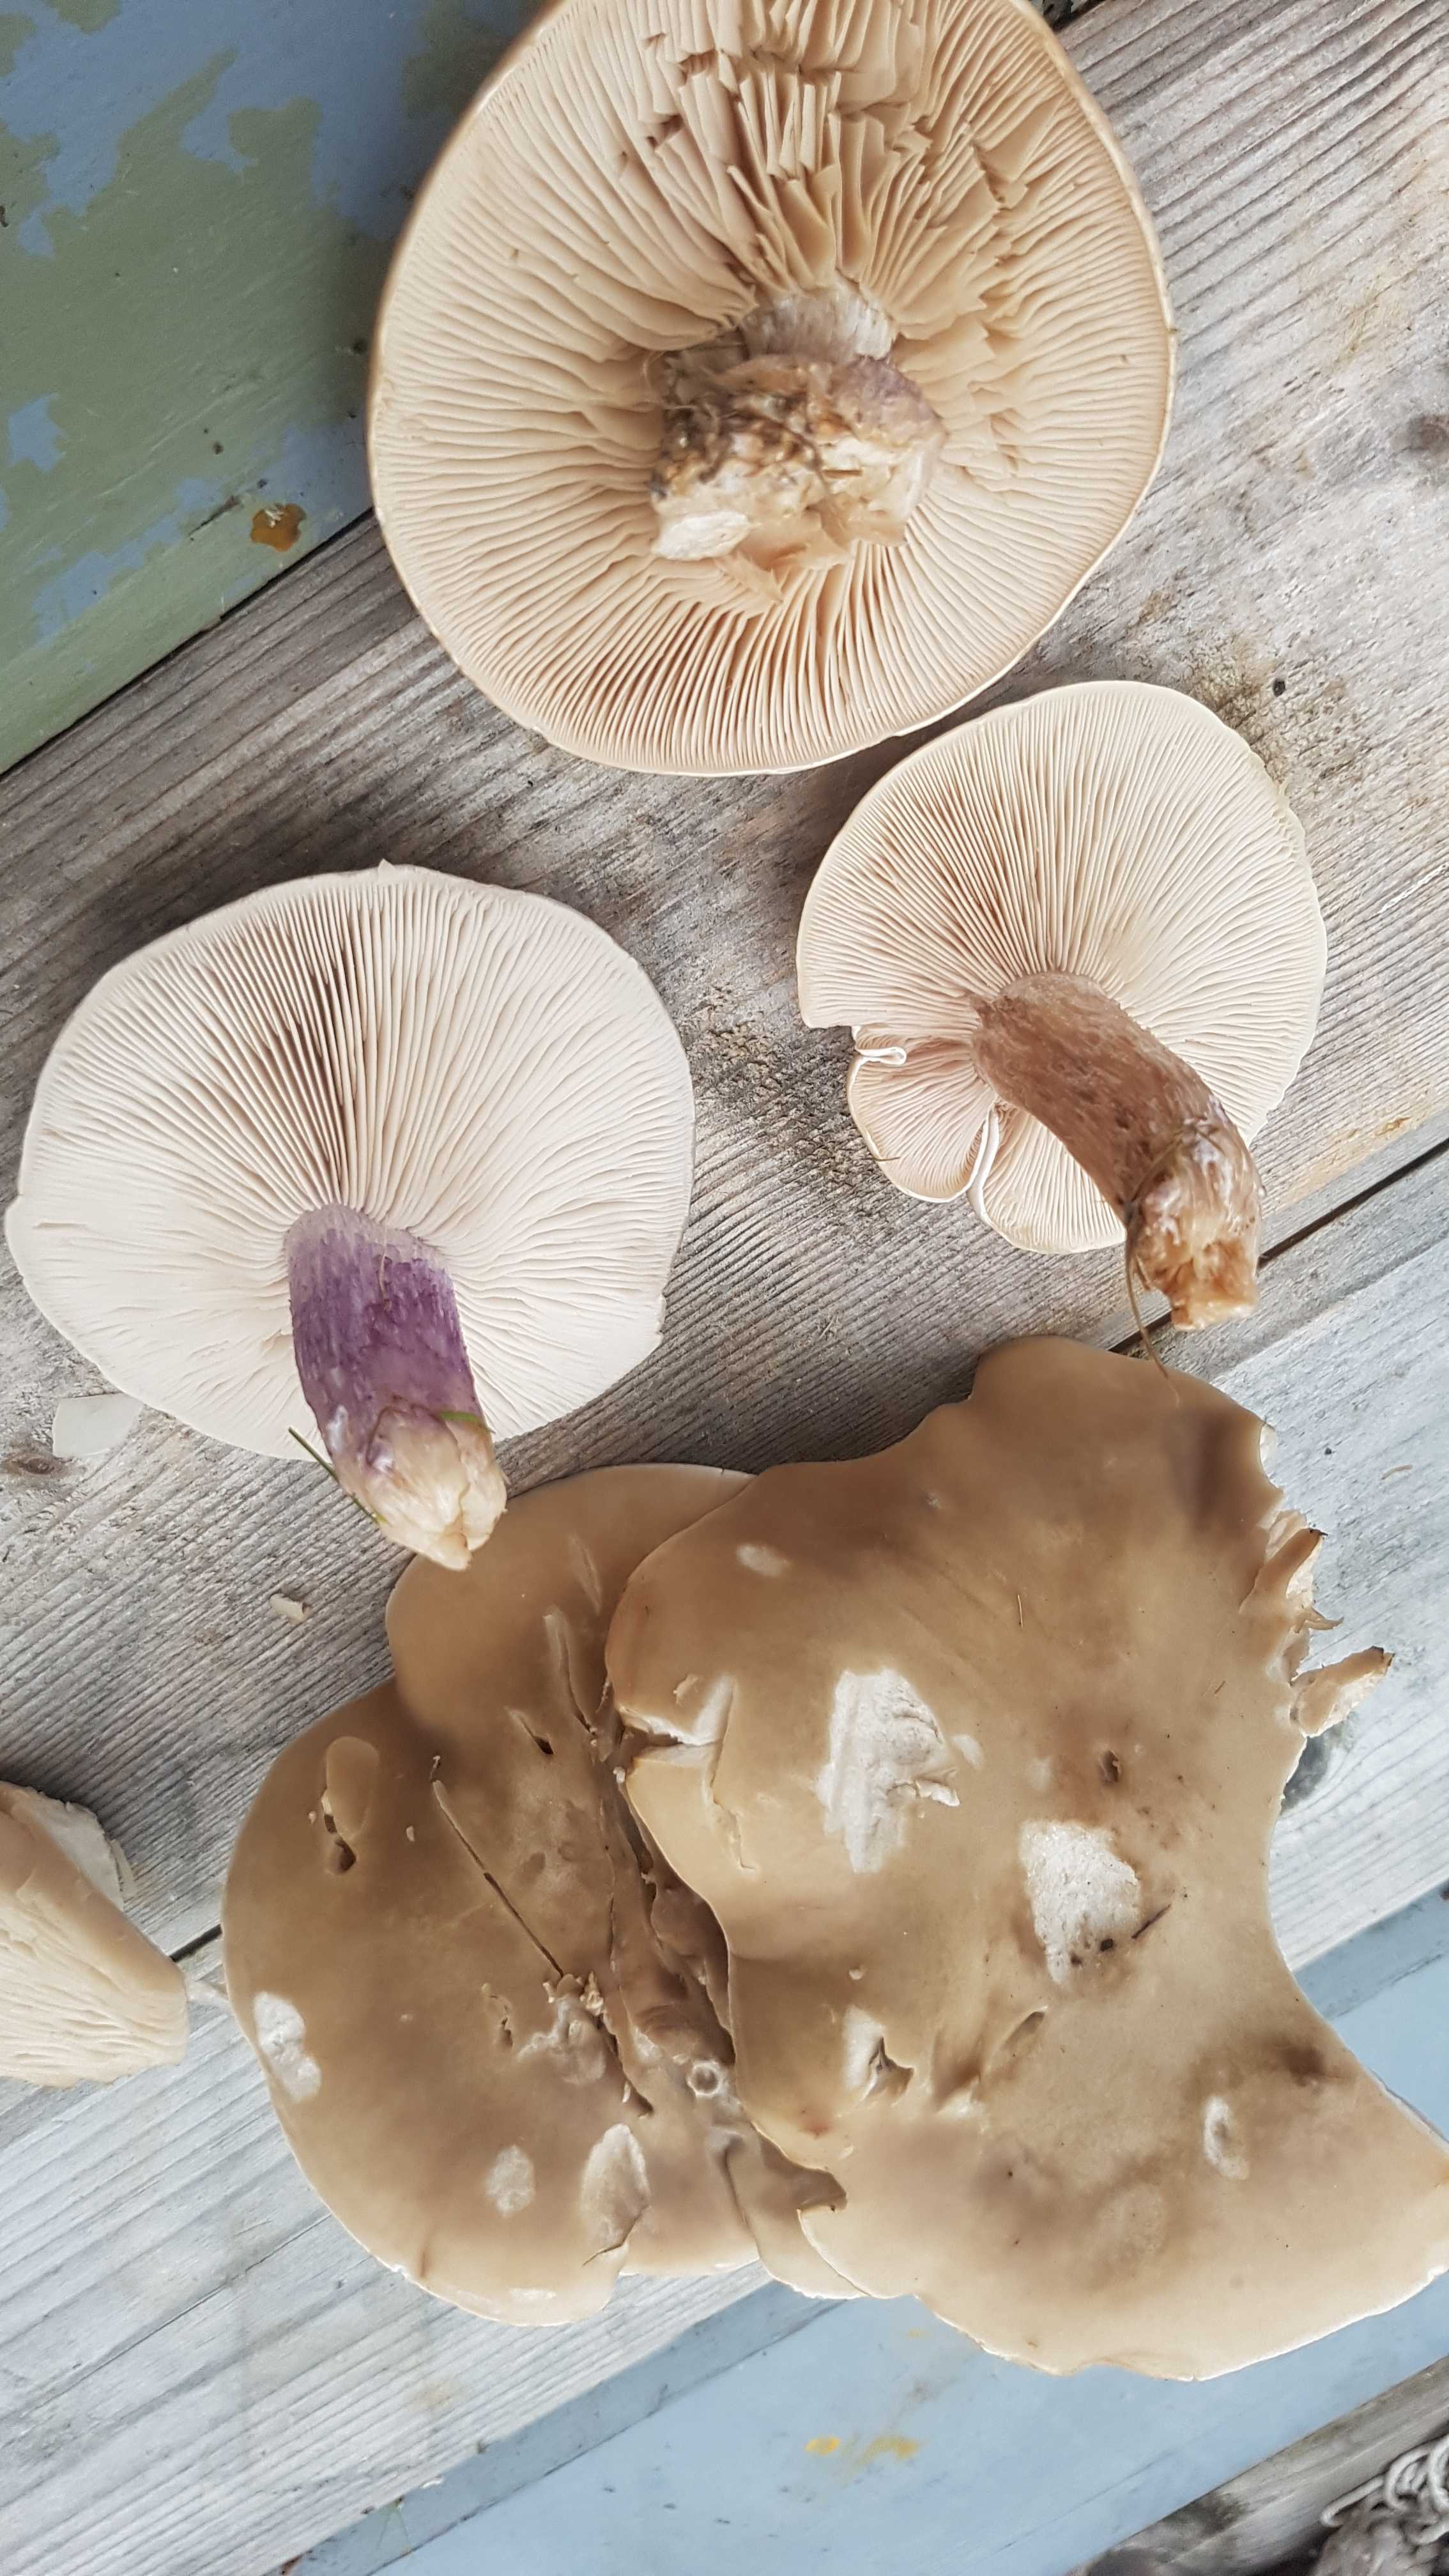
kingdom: Fungi
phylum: Basidiomycota
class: Agaricomycetes
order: Agaricales
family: Tricholomataceae
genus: Lepista
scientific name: Lepista personata
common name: bleg hekseringshat
